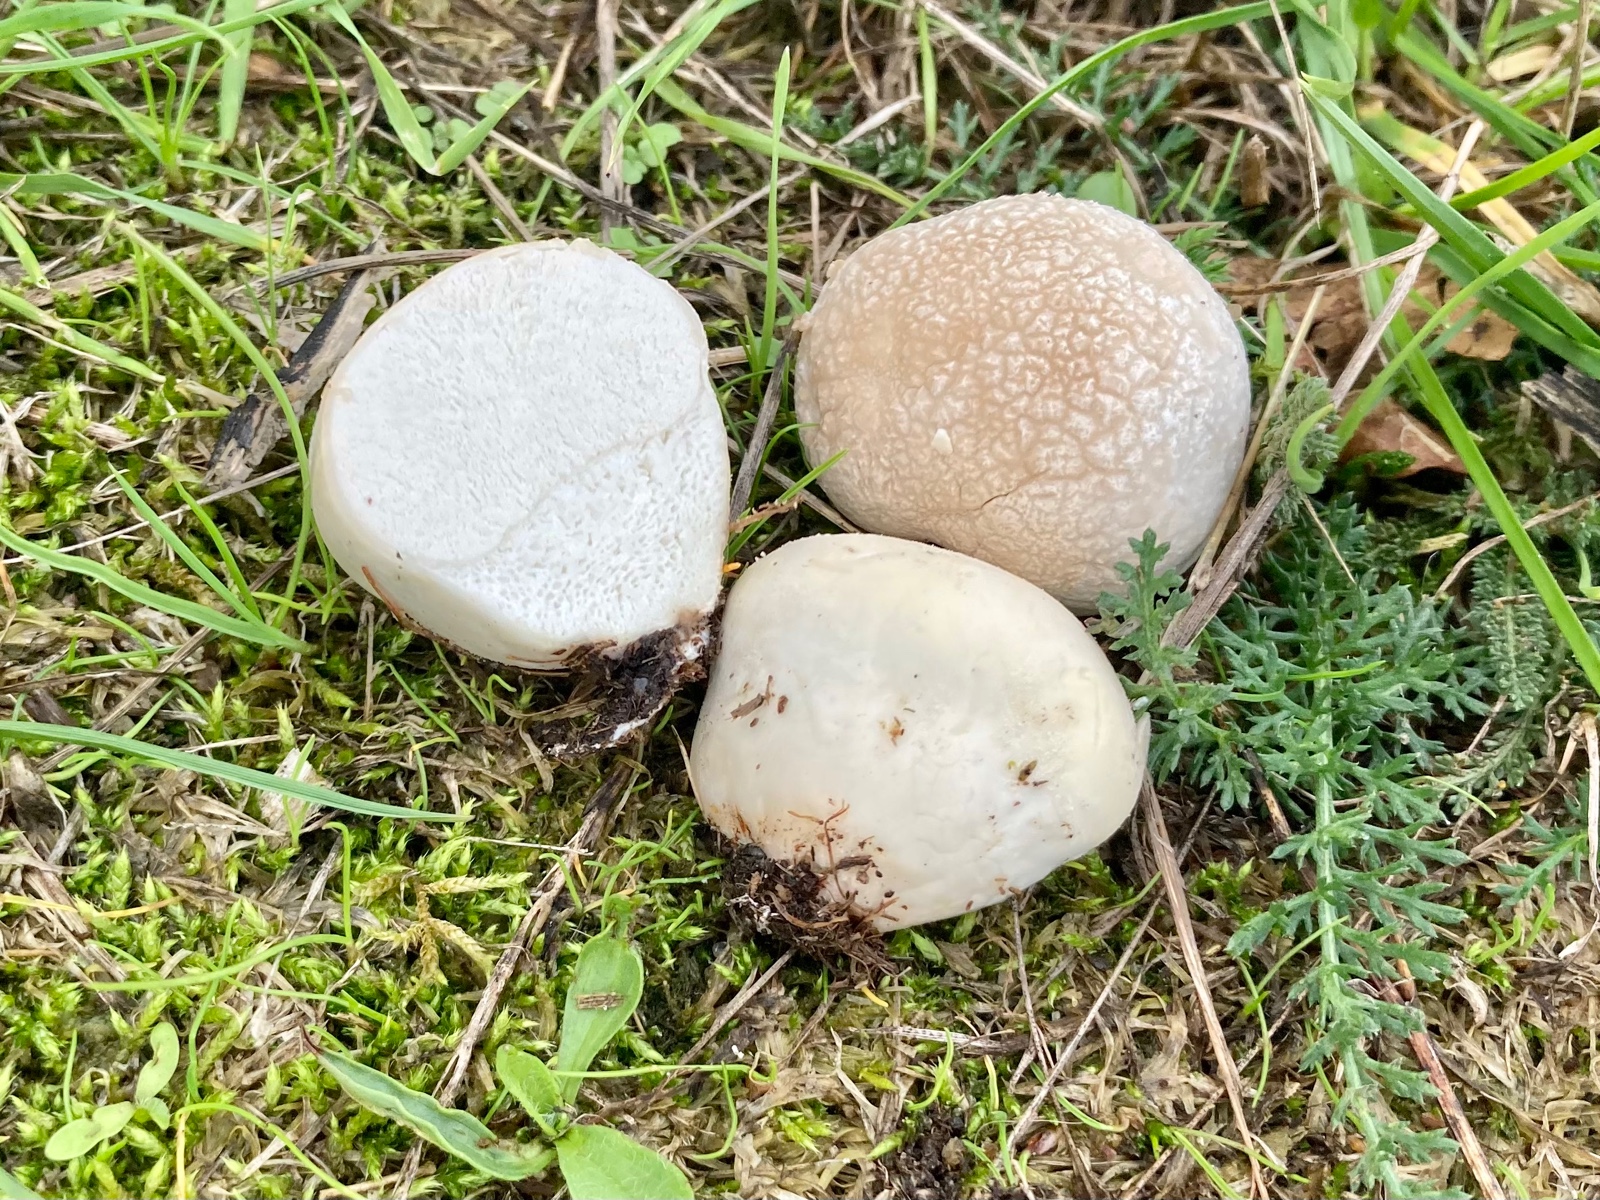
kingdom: Fungi
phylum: Basidiomycota
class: Agaricomycetes
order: Agaricales
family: Lycoperdaceae
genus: Lycoperdon
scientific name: Lycoperdon pratense
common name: flad støvbold
